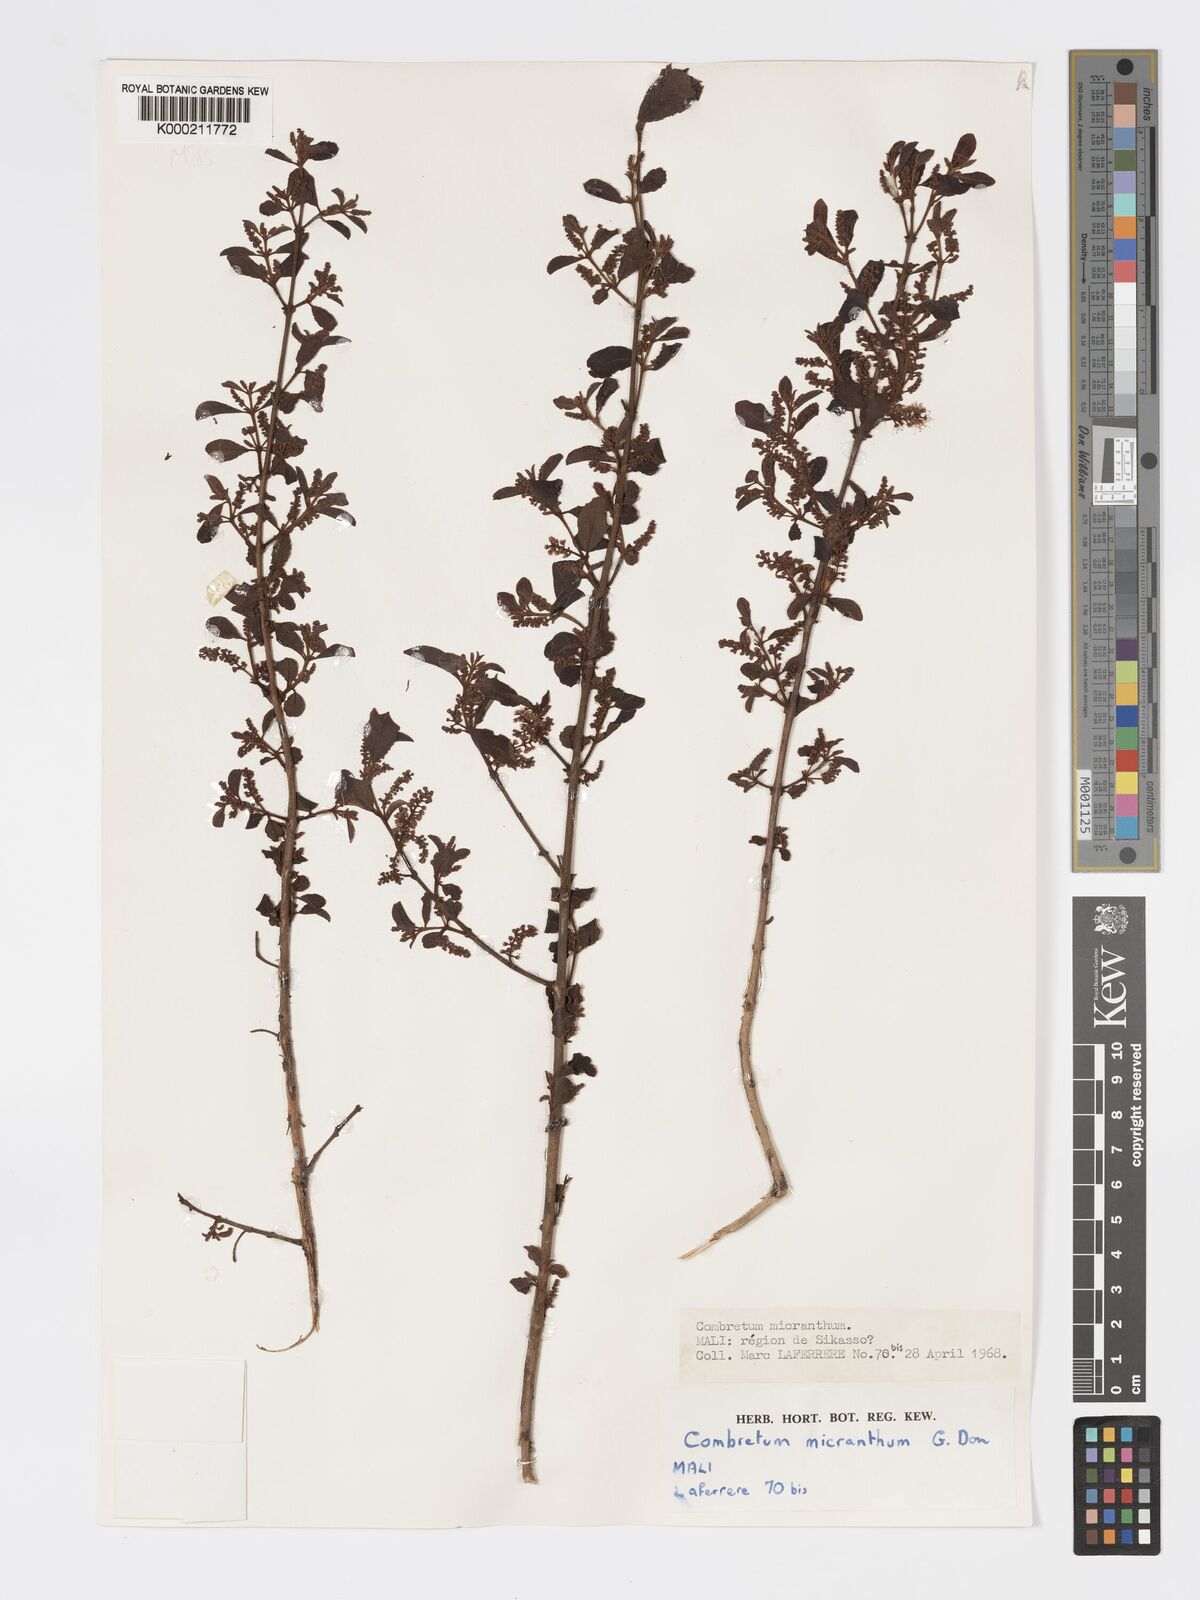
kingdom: Plantae
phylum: Tracheophyta
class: Magnoliopsida
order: Myrtales
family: Combretaceae
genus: Combretum
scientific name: Combretum micranthum
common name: Opium-antidote
